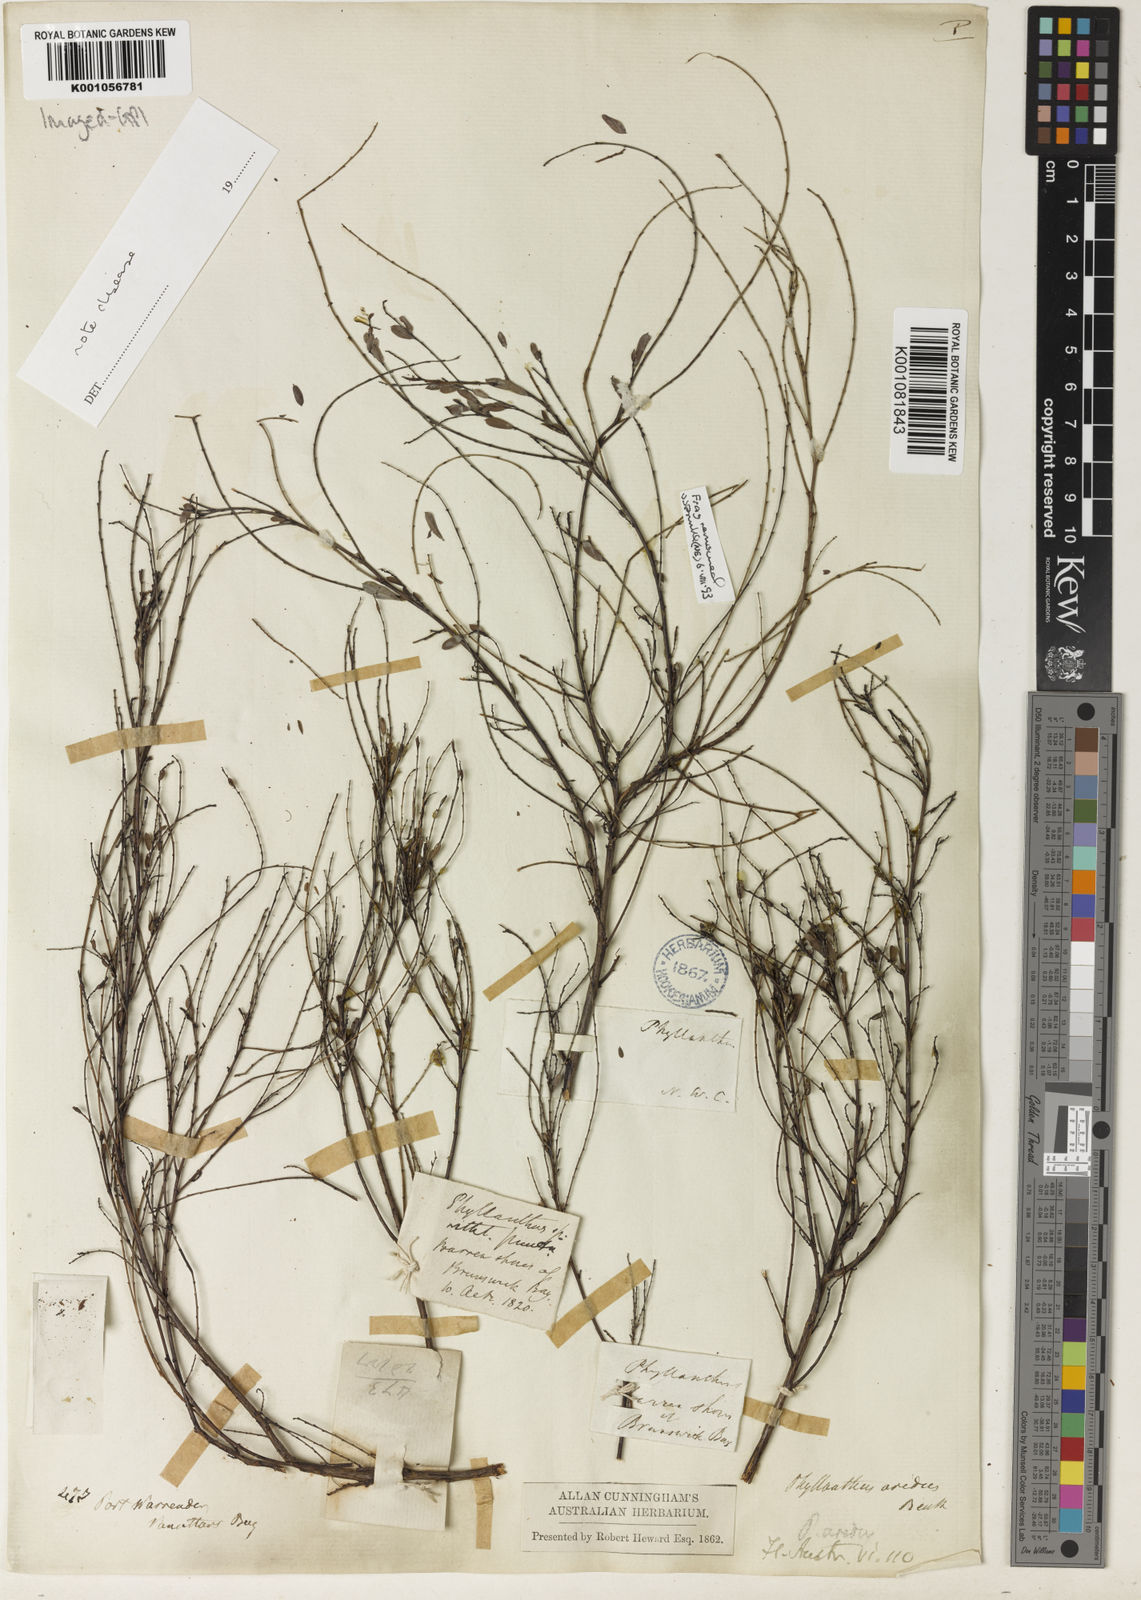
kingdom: Plantae
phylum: Tracheophyta
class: Magnoliopsida
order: Malpighiales
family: Phyllanthaceae
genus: Phyllanthus
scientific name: Phyllanthus aridus
